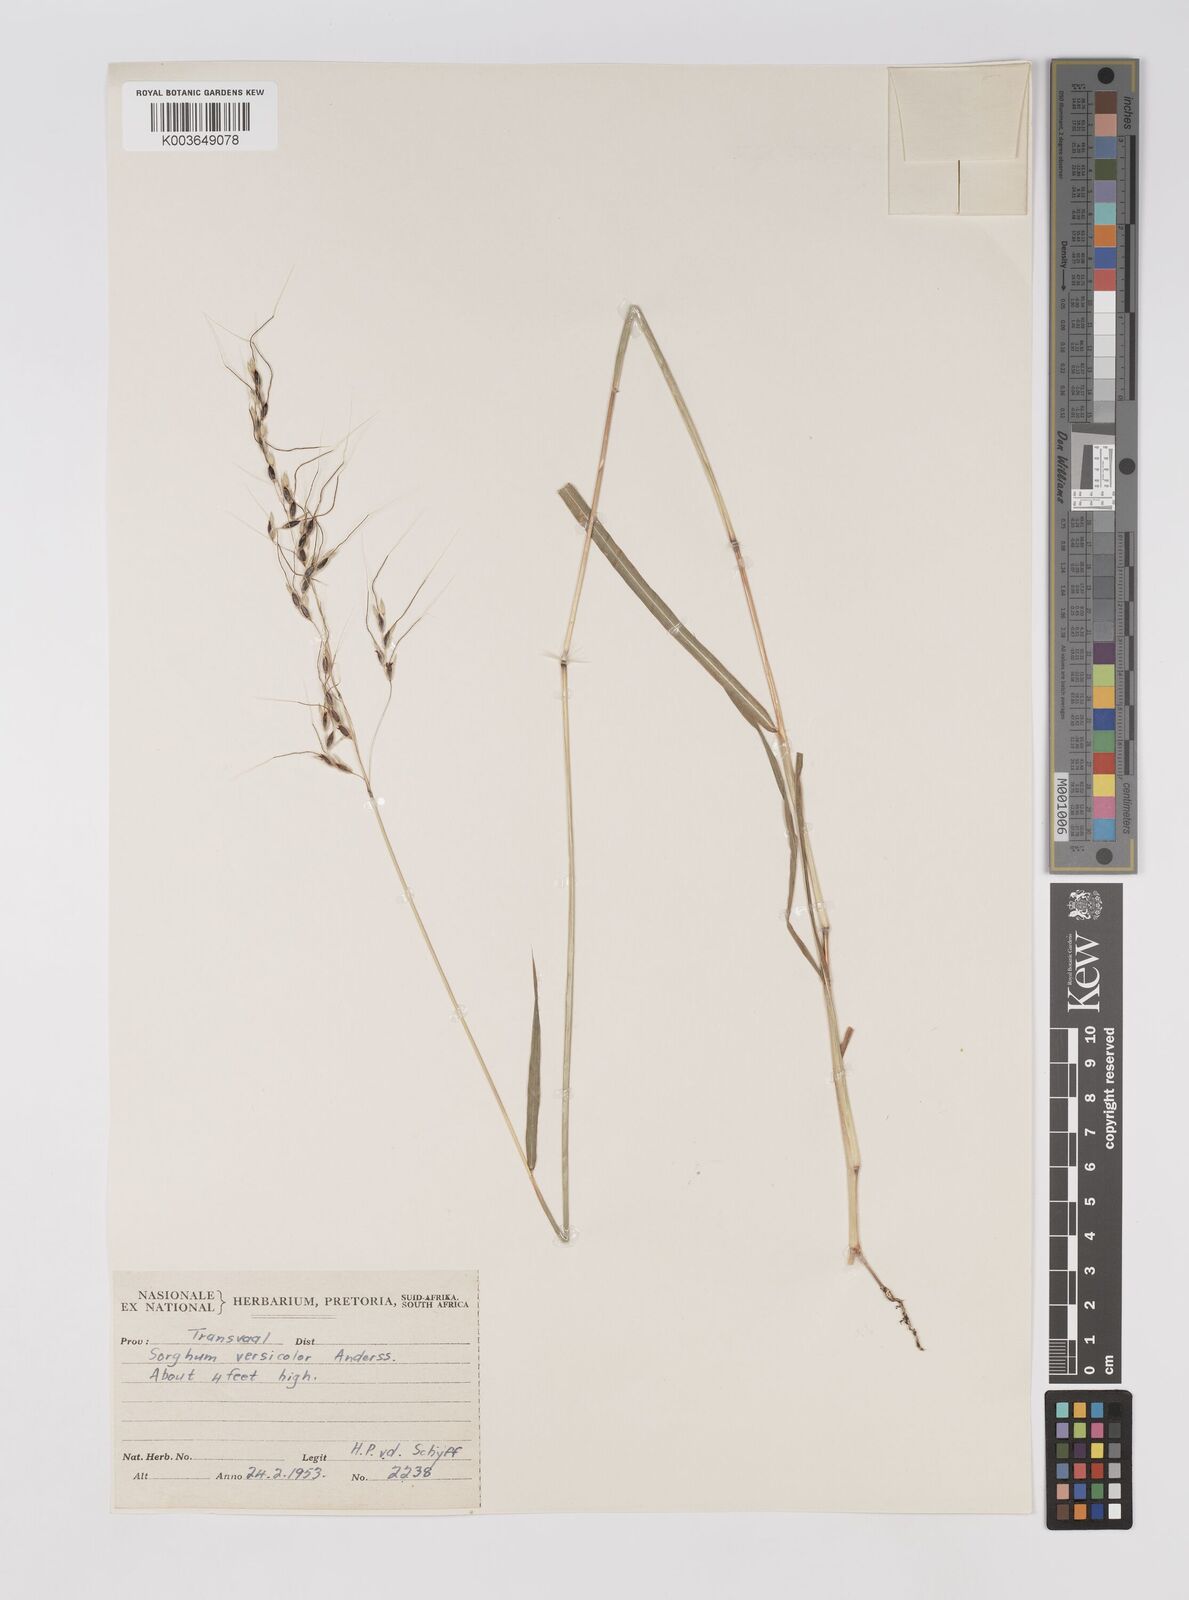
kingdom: Plantae
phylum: Tracheophyta
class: Liliopsida
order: Poales
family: Poaceae
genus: Sarga
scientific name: Sarga versicolor
